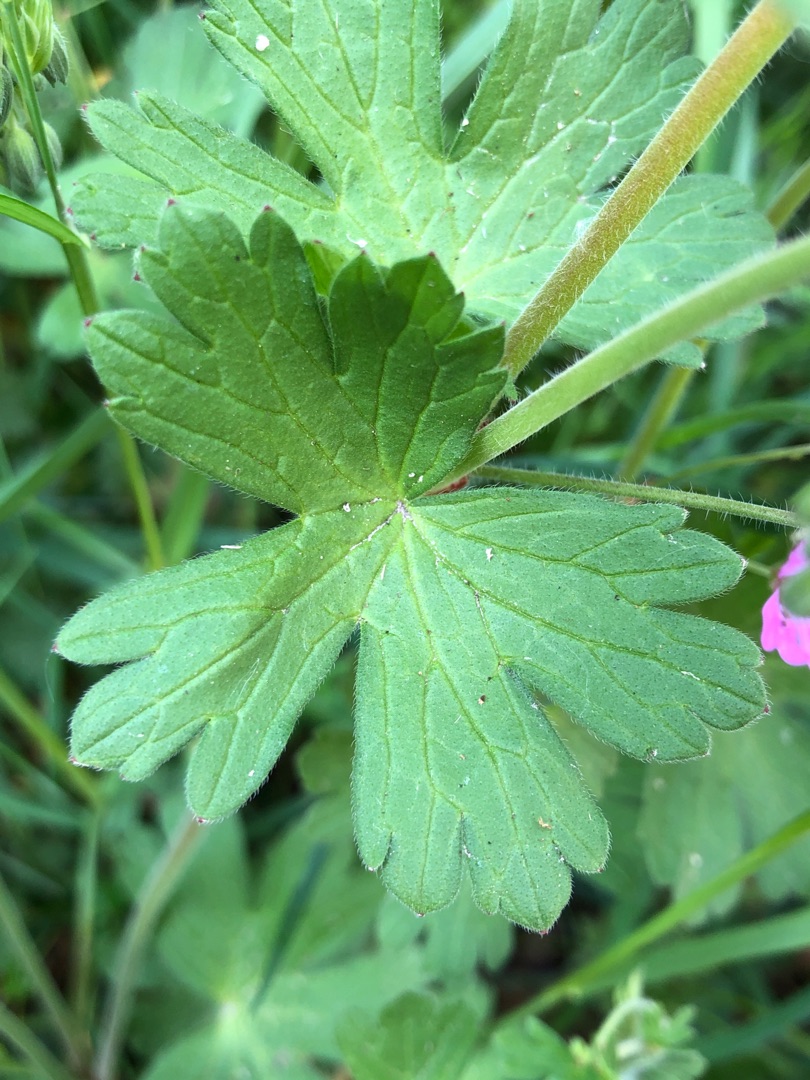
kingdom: Plantae
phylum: Tracheophyta
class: Magnoliopsida
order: Geraniales
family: Geraniaceae
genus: Geranium
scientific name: Geranium pyrenaicum
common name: Pyrenæisk storkenæb
